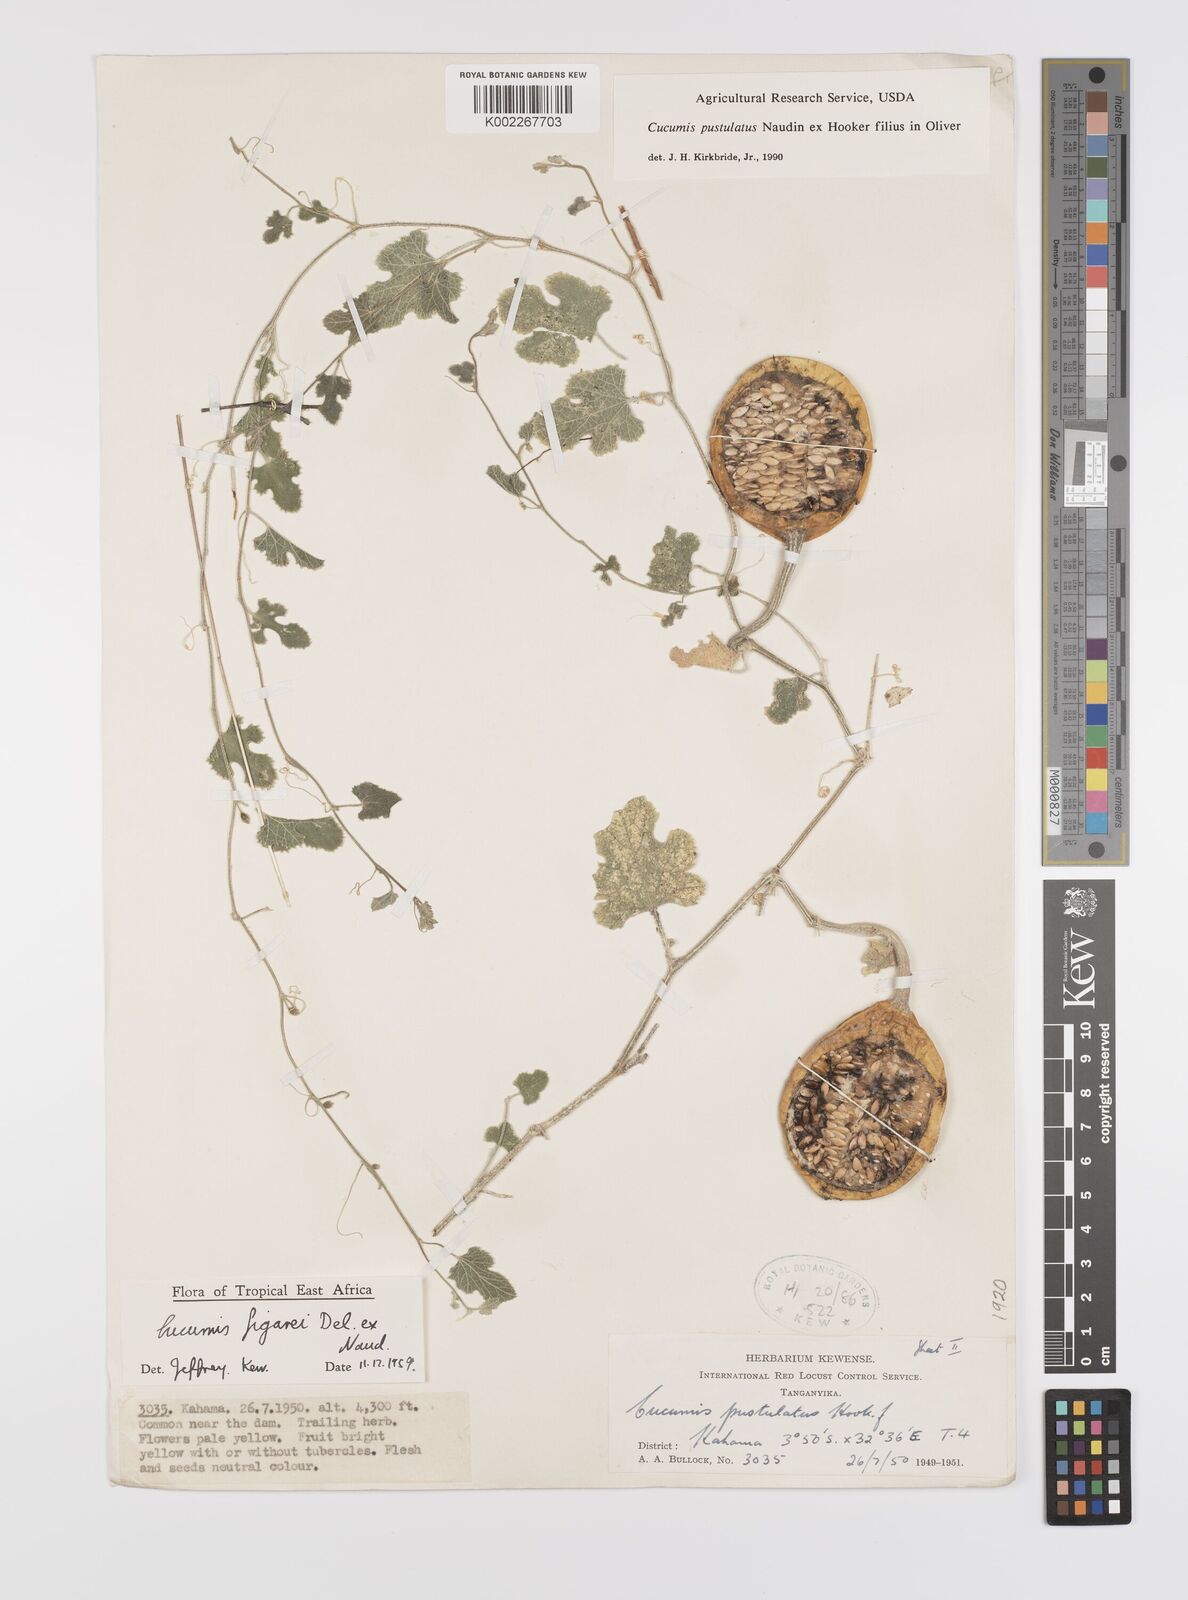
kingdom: Plantae
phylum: Tracheophyta
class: Magnoliopsida
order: Cucurbitales
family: Cucurbitaceae
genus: Cucumis
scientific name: Cucumis pustulatus
